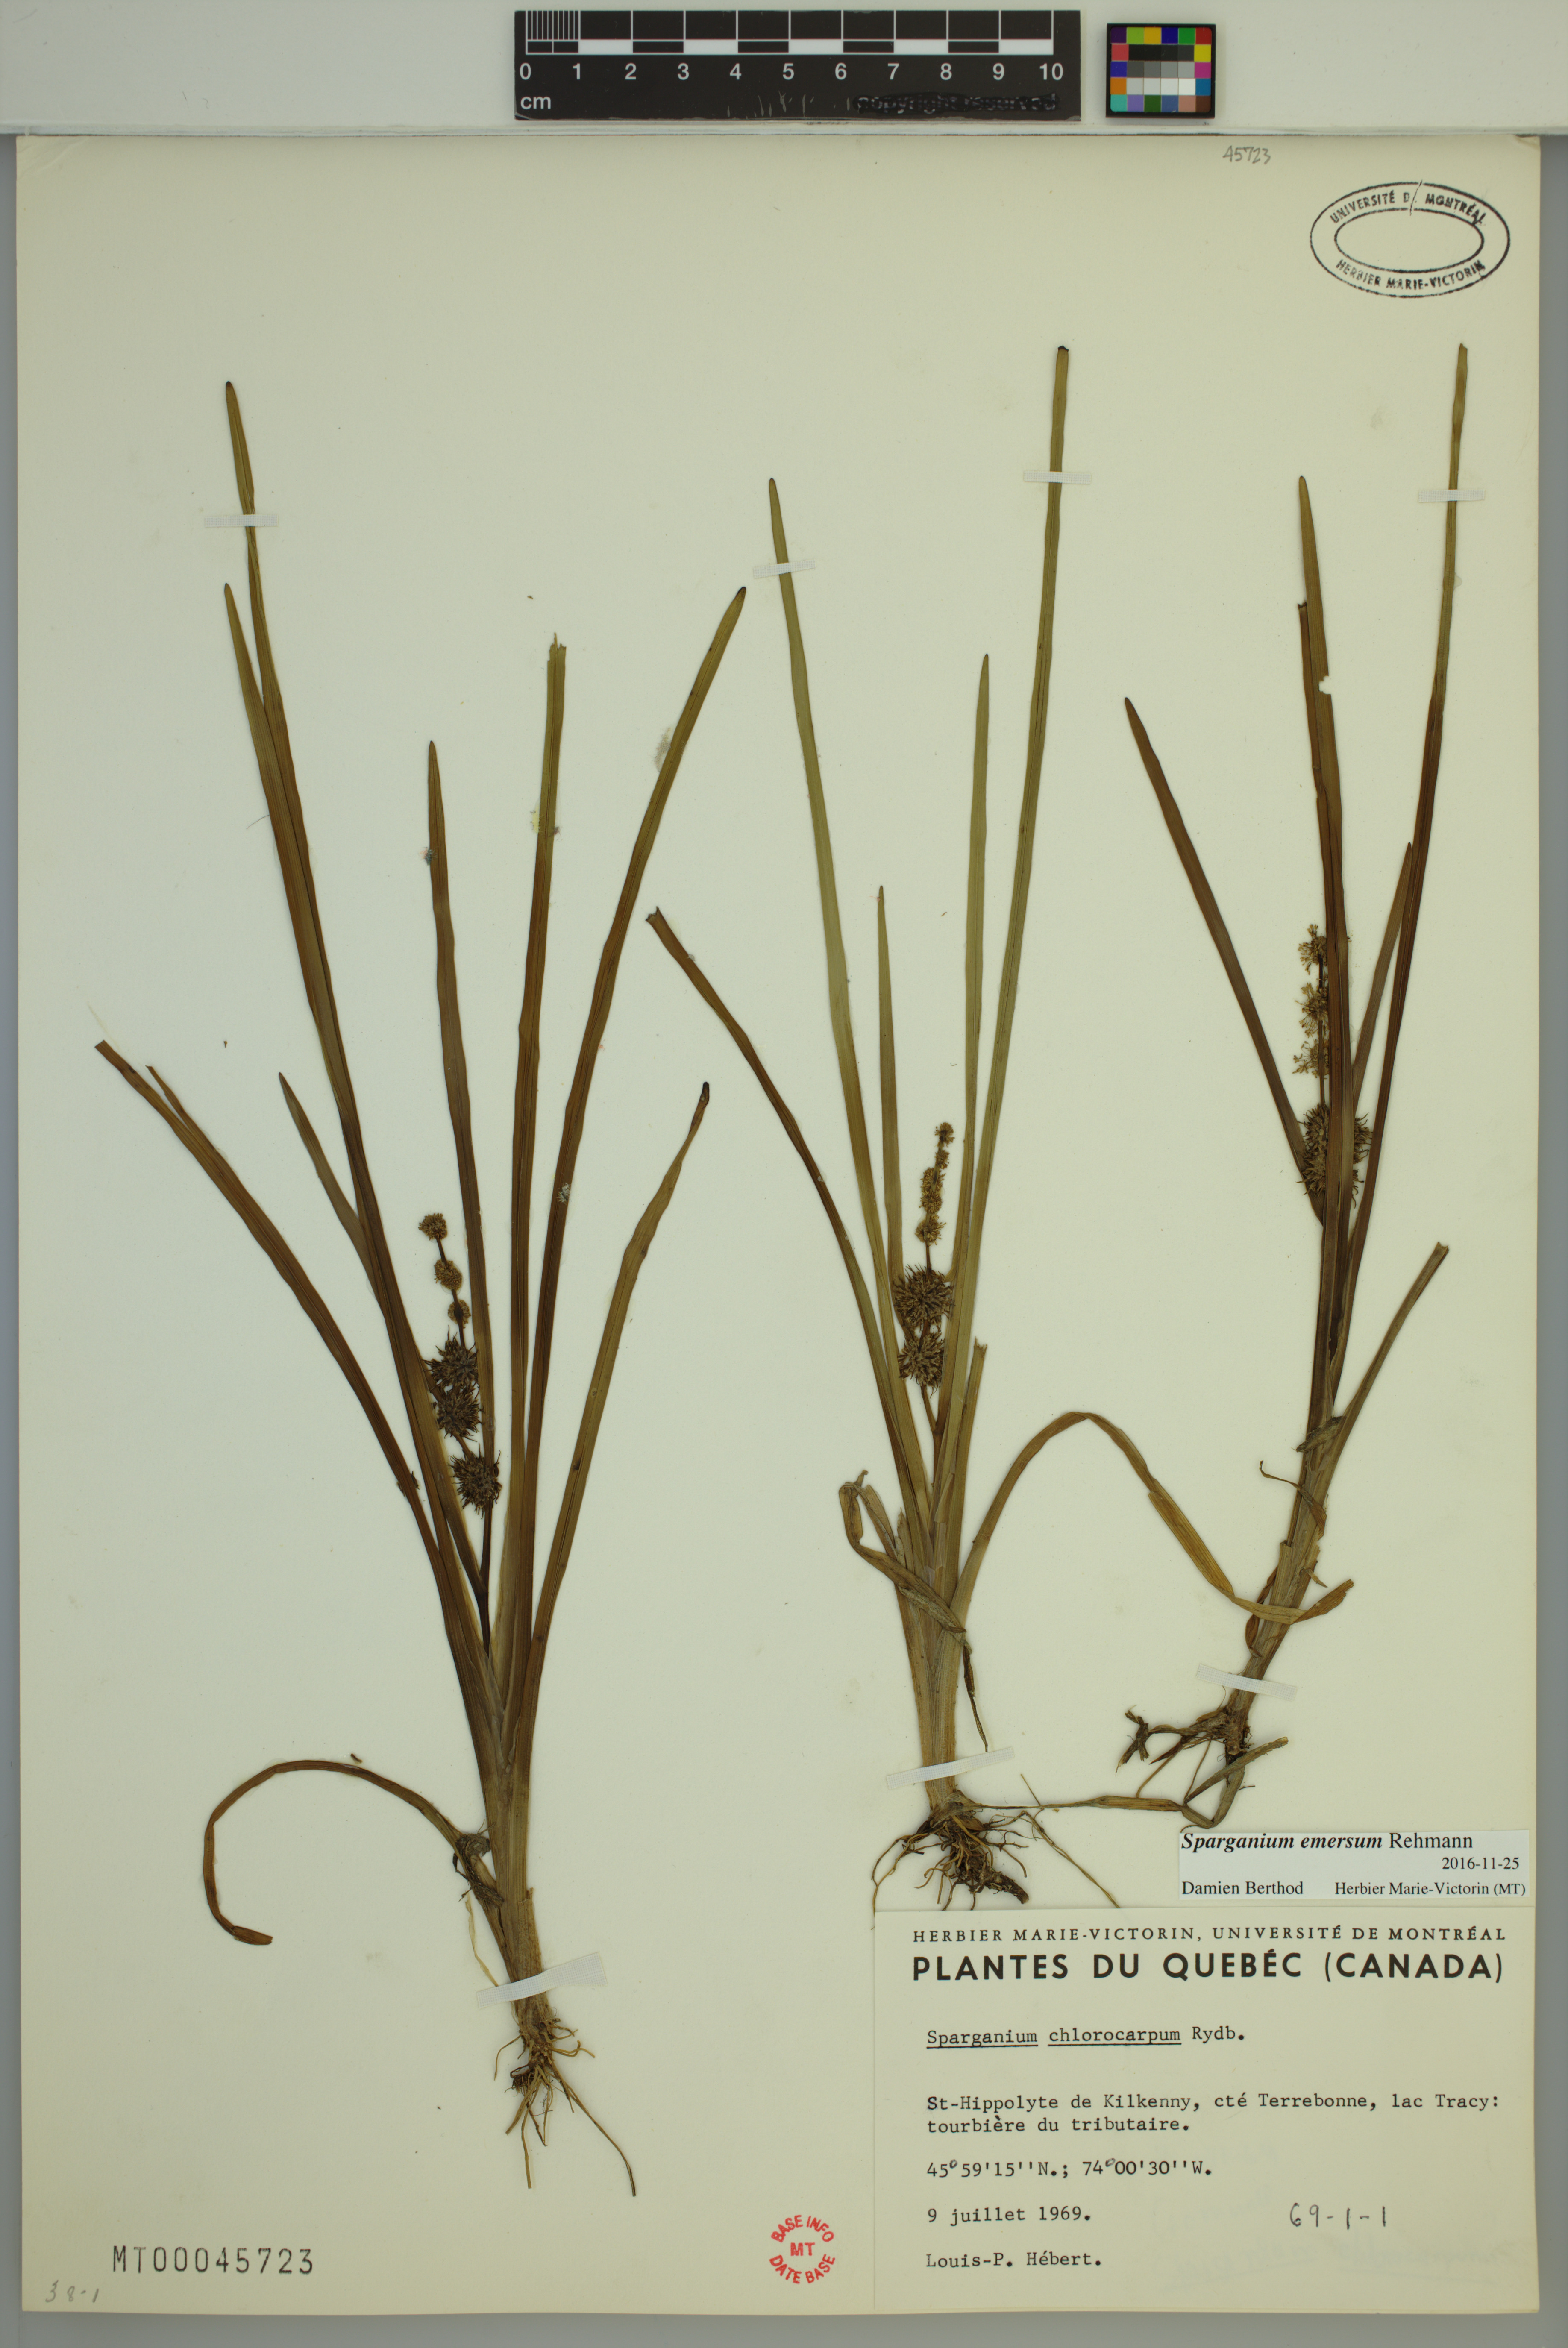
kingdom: Plantae
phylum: Tracheophyta
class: Liliopsida
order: Poales
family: Typhaceae
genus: Sparganium
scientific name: Sparganium emersum
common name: Unbranched bur-reed
